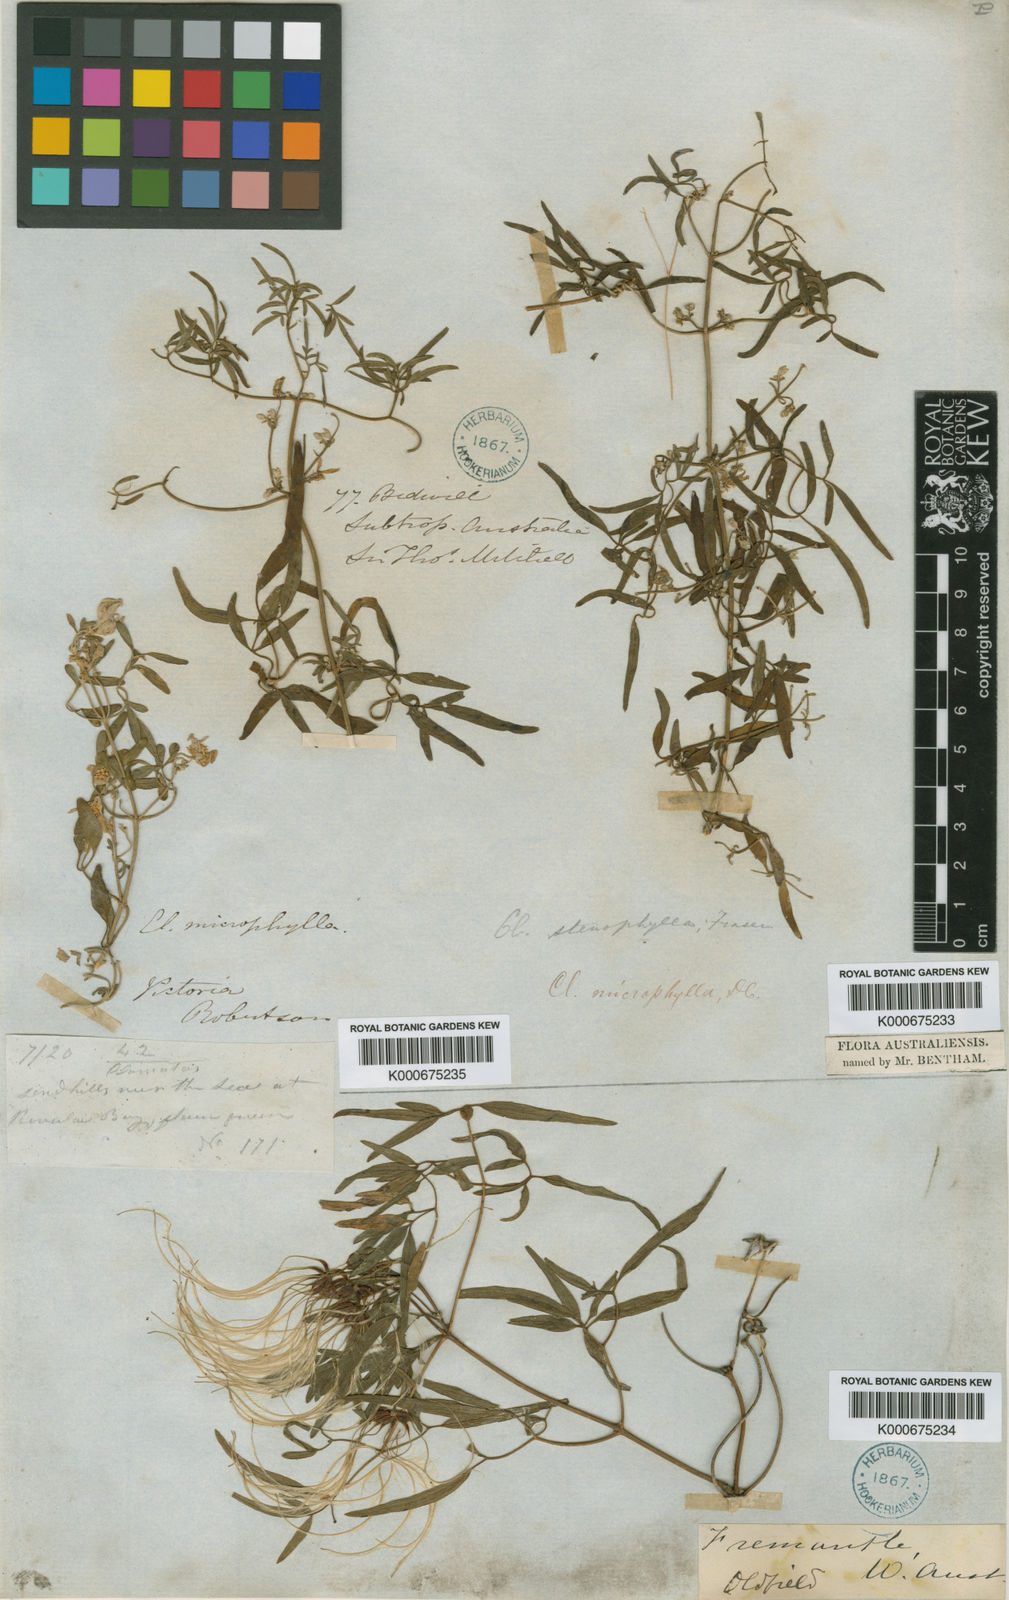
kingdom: Plantae
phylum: Tracheophyta
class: Magnoliopsida
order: Ranunculales
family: Ranunculaceae
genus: Clematis
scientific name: Clematis microphylla
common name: Headachevine
